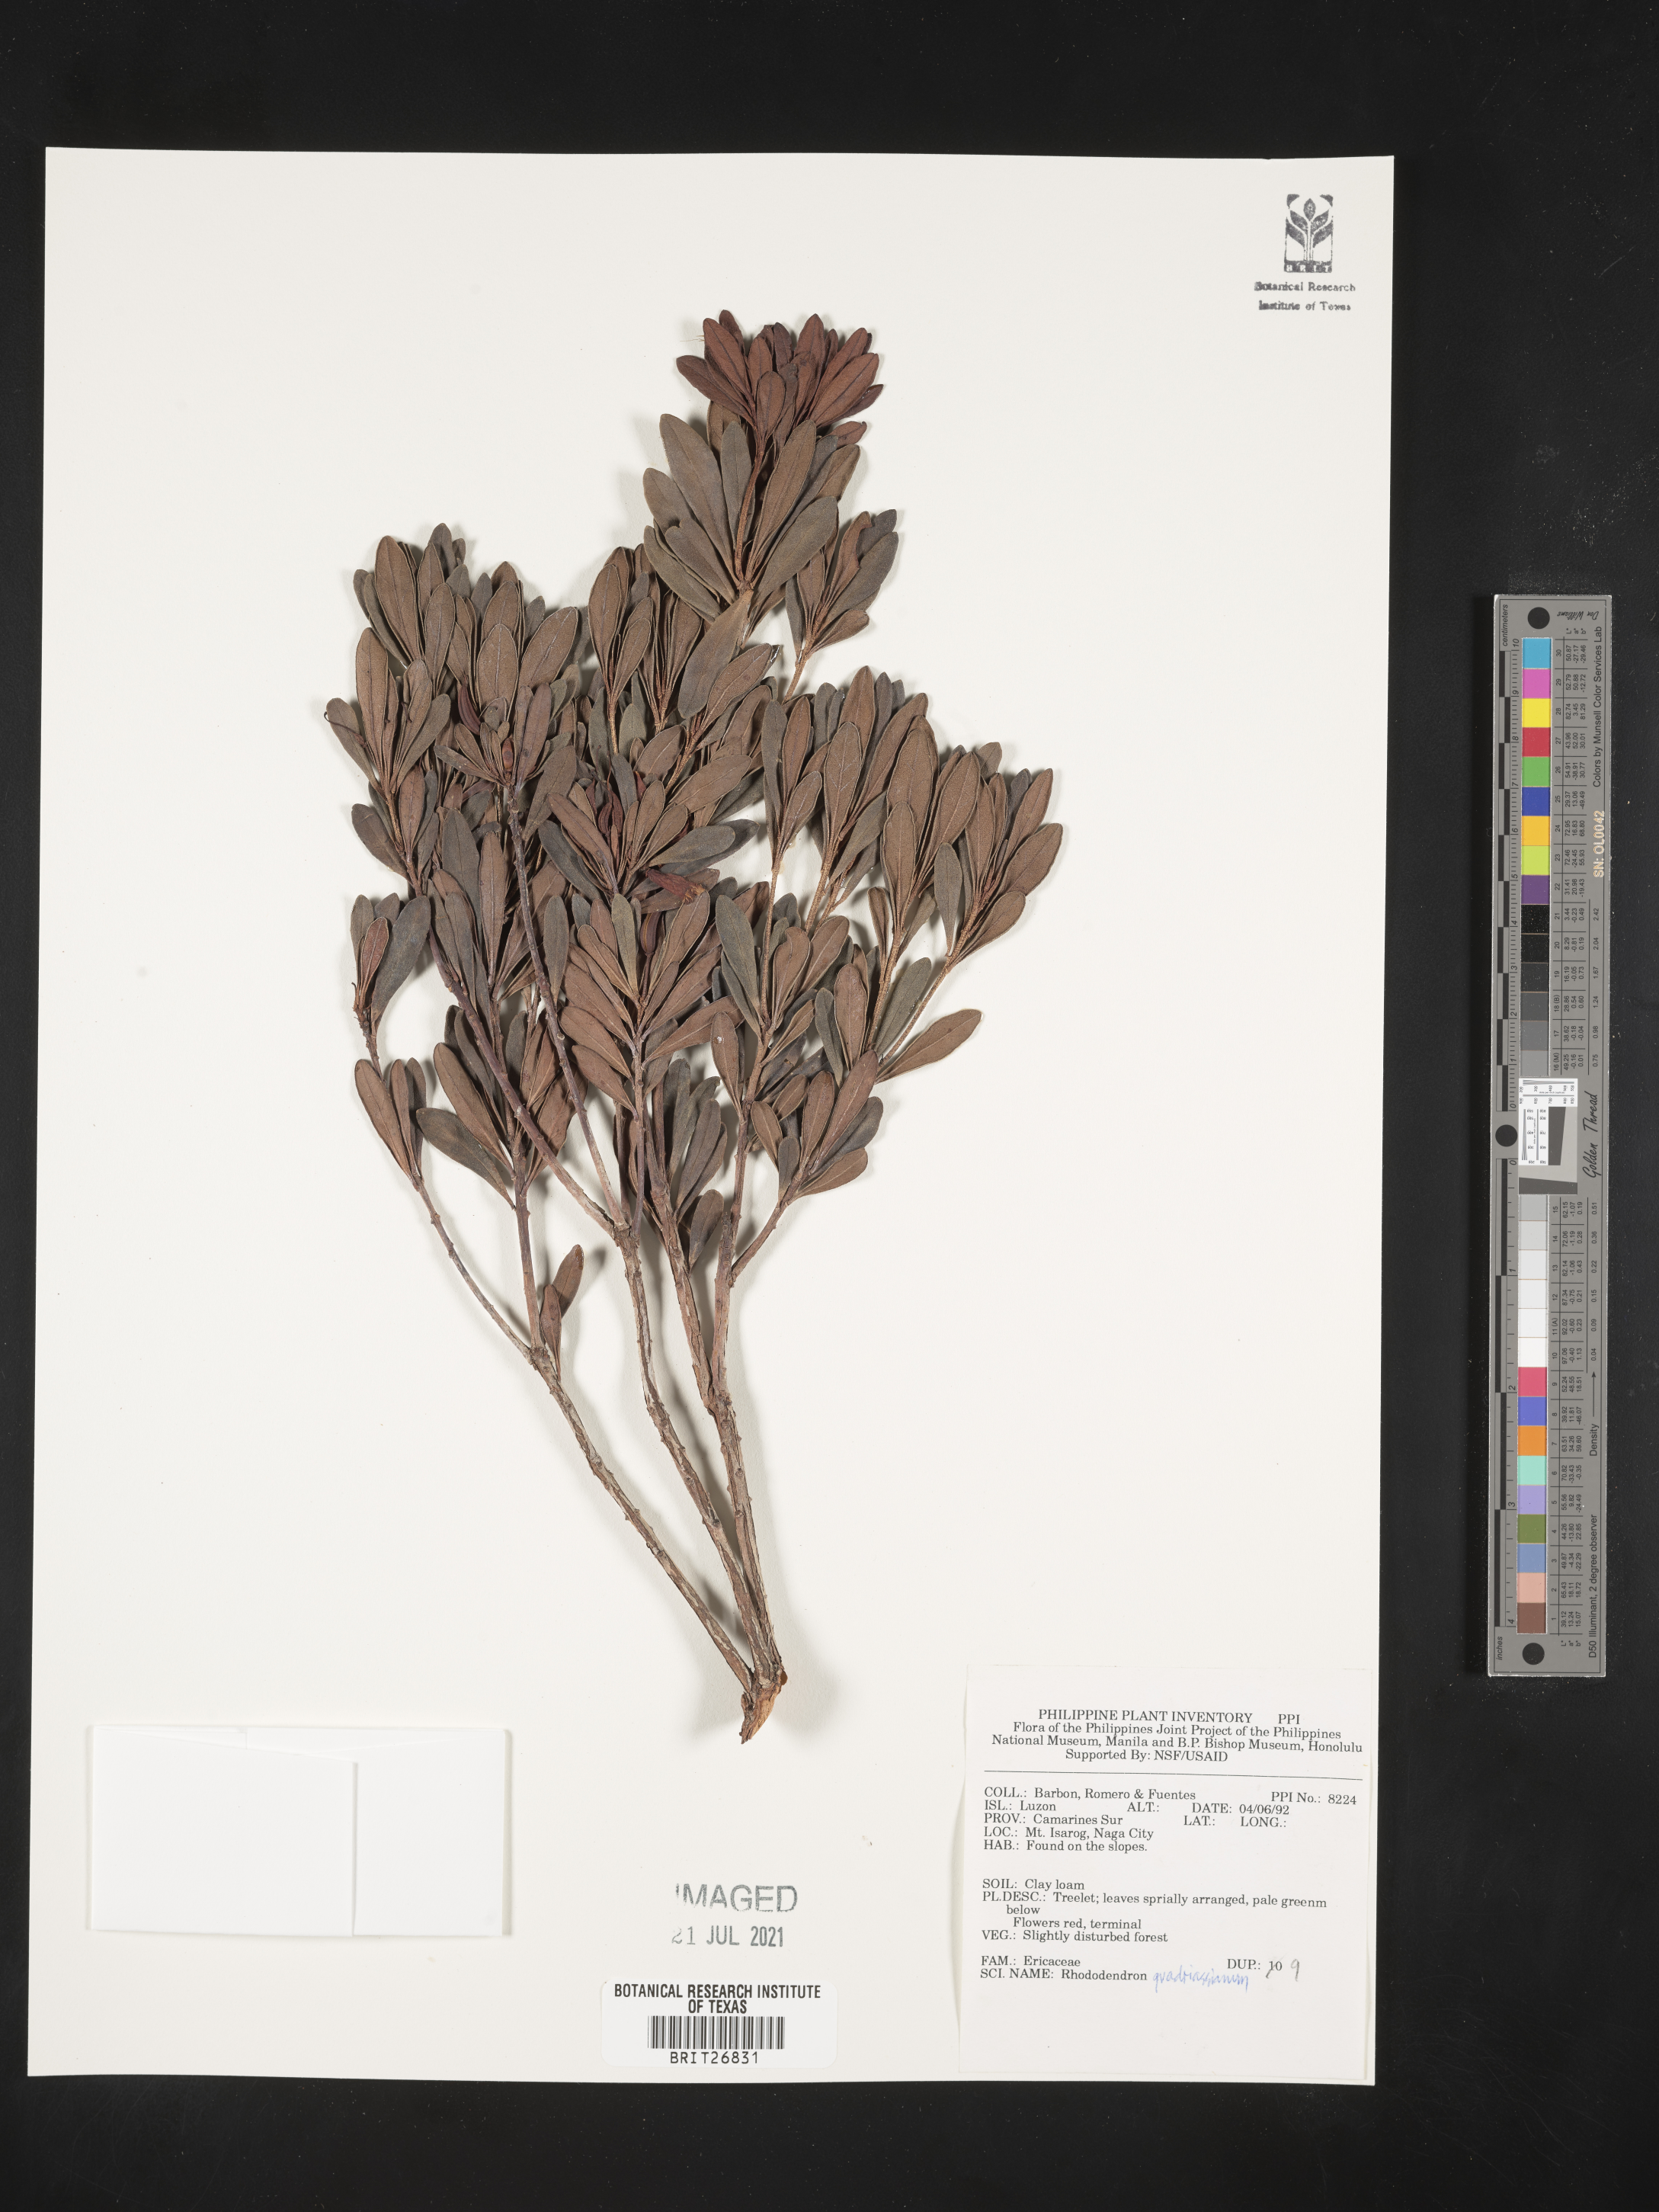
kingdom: Plantae
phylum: Tracheophyta
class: Magnoliopsida
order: Ericales
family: Ericaceae
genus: Rhododendron
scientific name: Rhododendron quadrasianum
